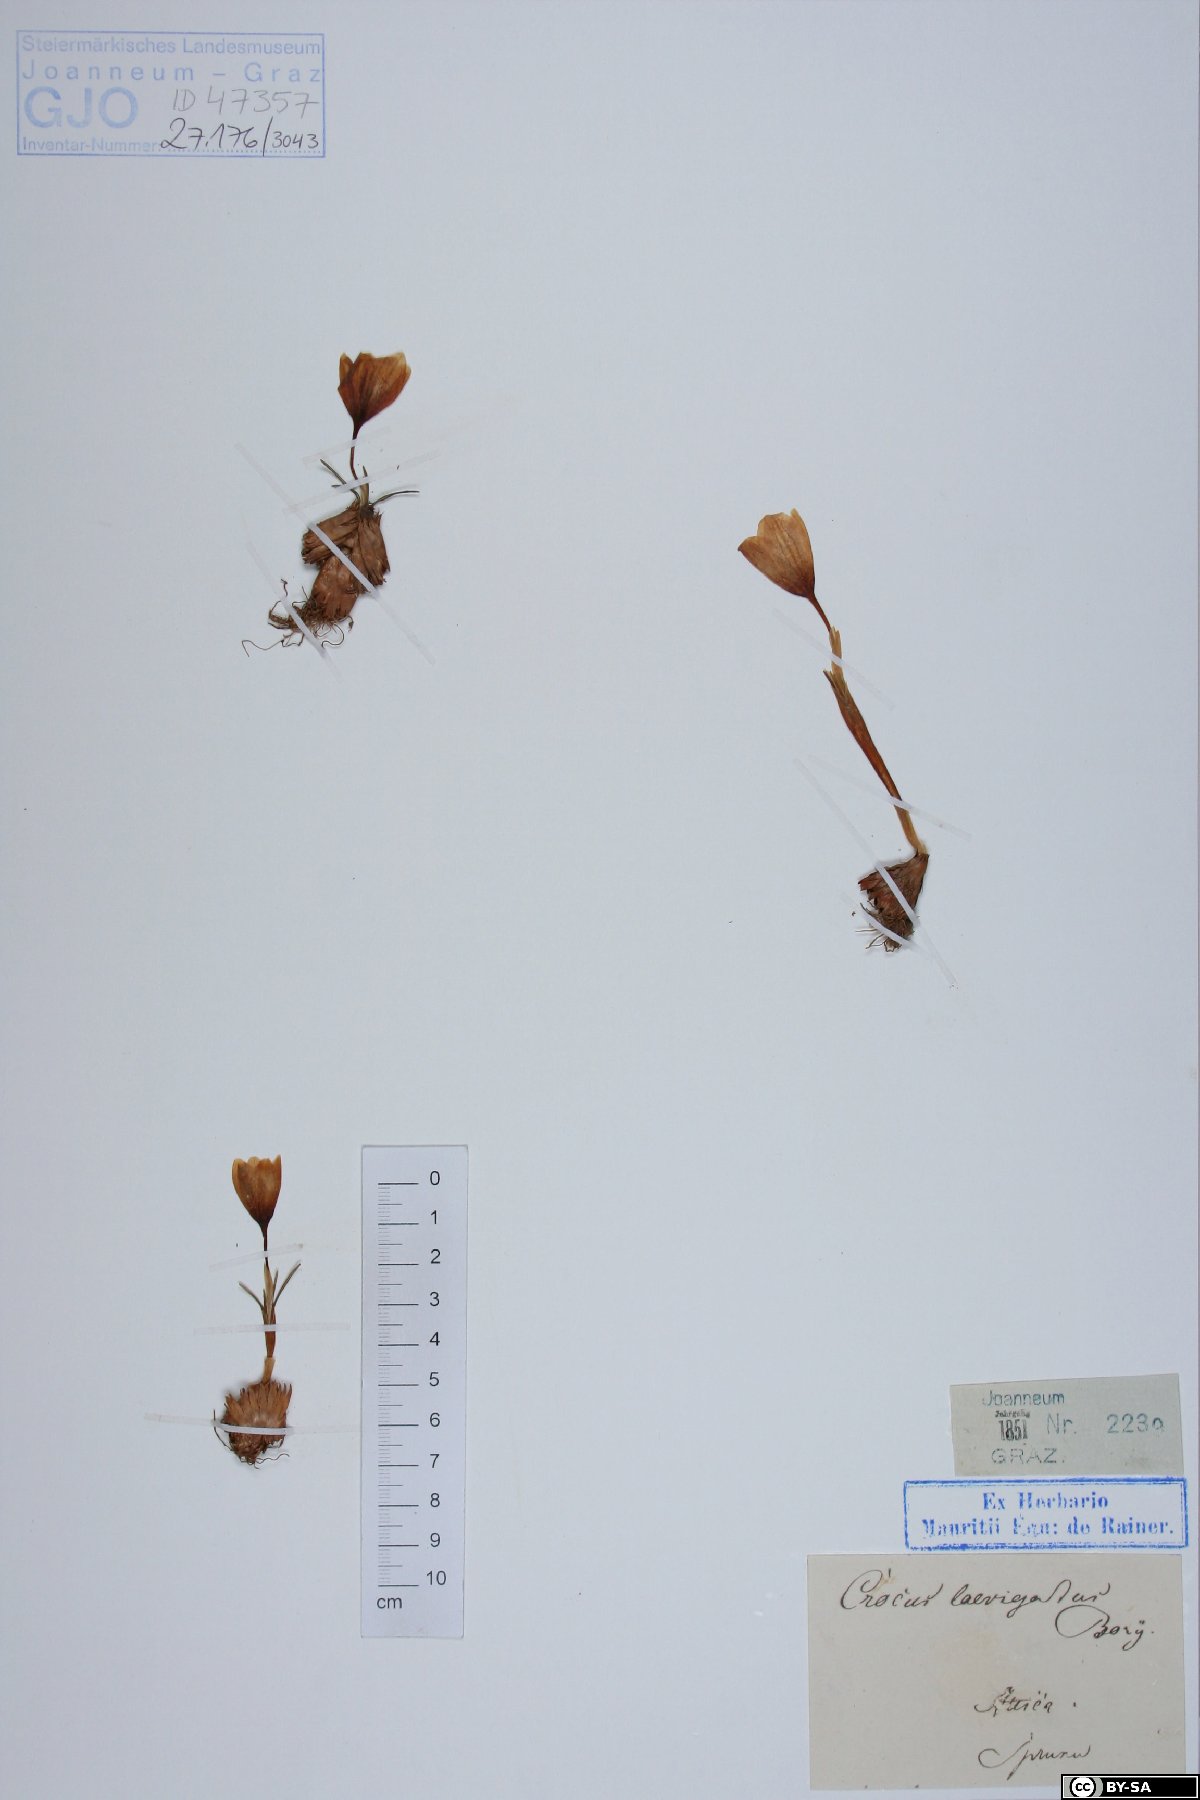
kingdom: Plantae
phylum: Tracheophyta
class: Liliopsida
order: Asparagales
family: Iridaceae
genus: Crocus
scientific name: Crocus laevigatus
